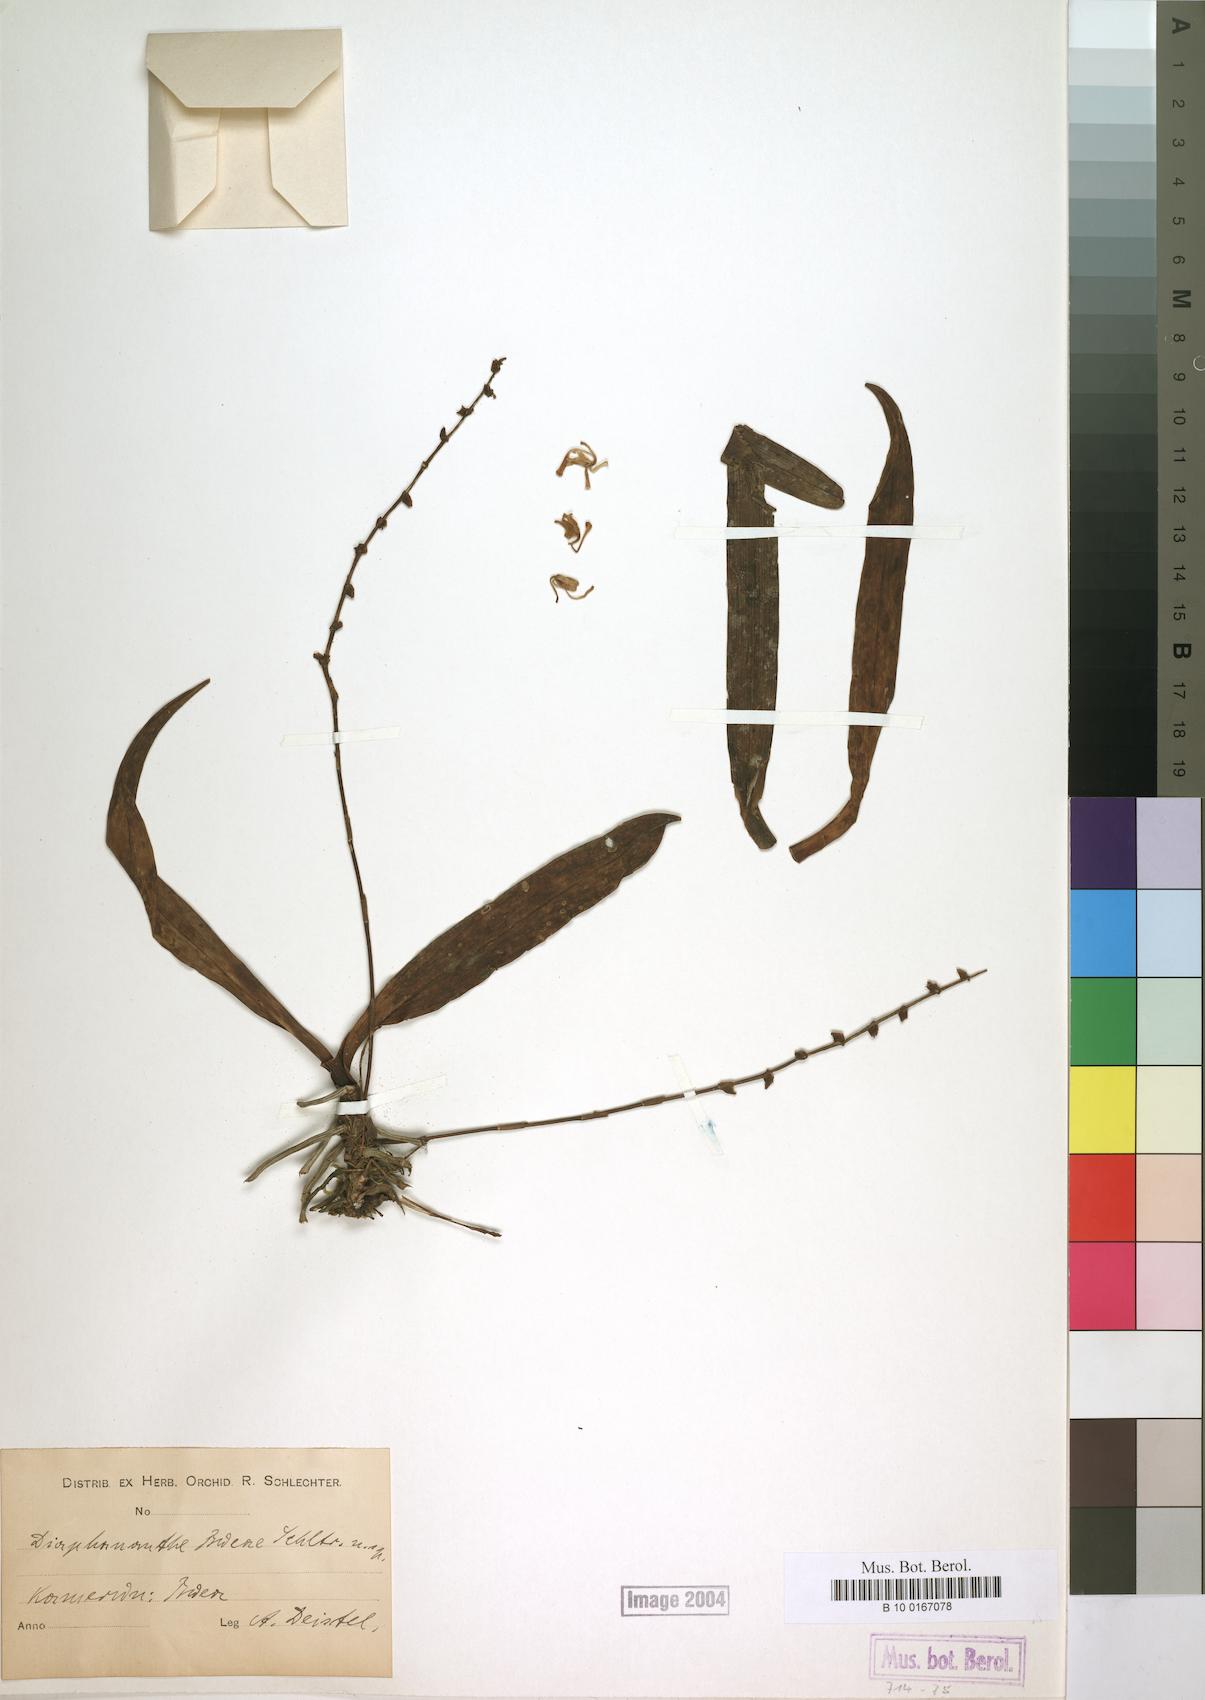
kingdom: Plantae
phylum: Tracheophyta
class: Liliopsida
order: Asparagales
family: Orchidaceae
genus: Kylicanthe
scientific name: Kylicanthe bueae
